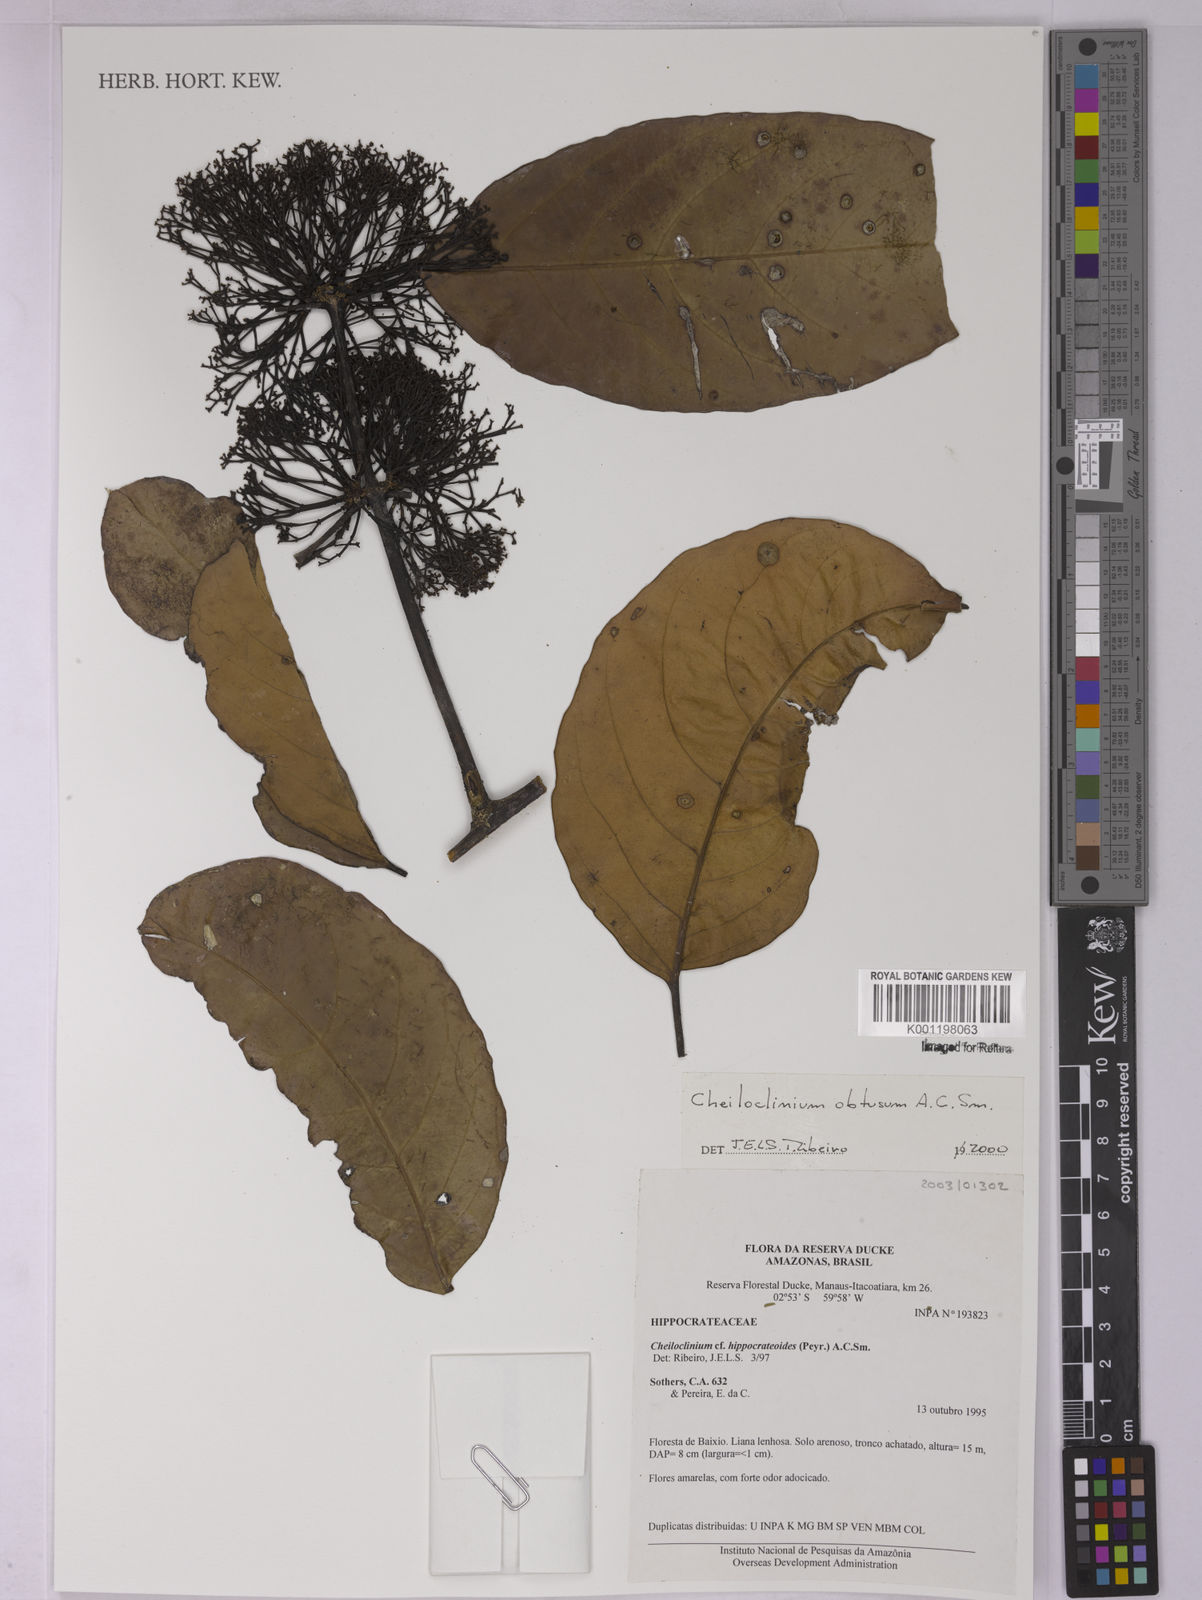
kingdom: Plantae
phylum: Tracheophyta
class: Magnoliopsida
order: Celastrales
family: Celastraceae
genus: Cheiloclinium
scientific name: Cheiloclinium obtusum
